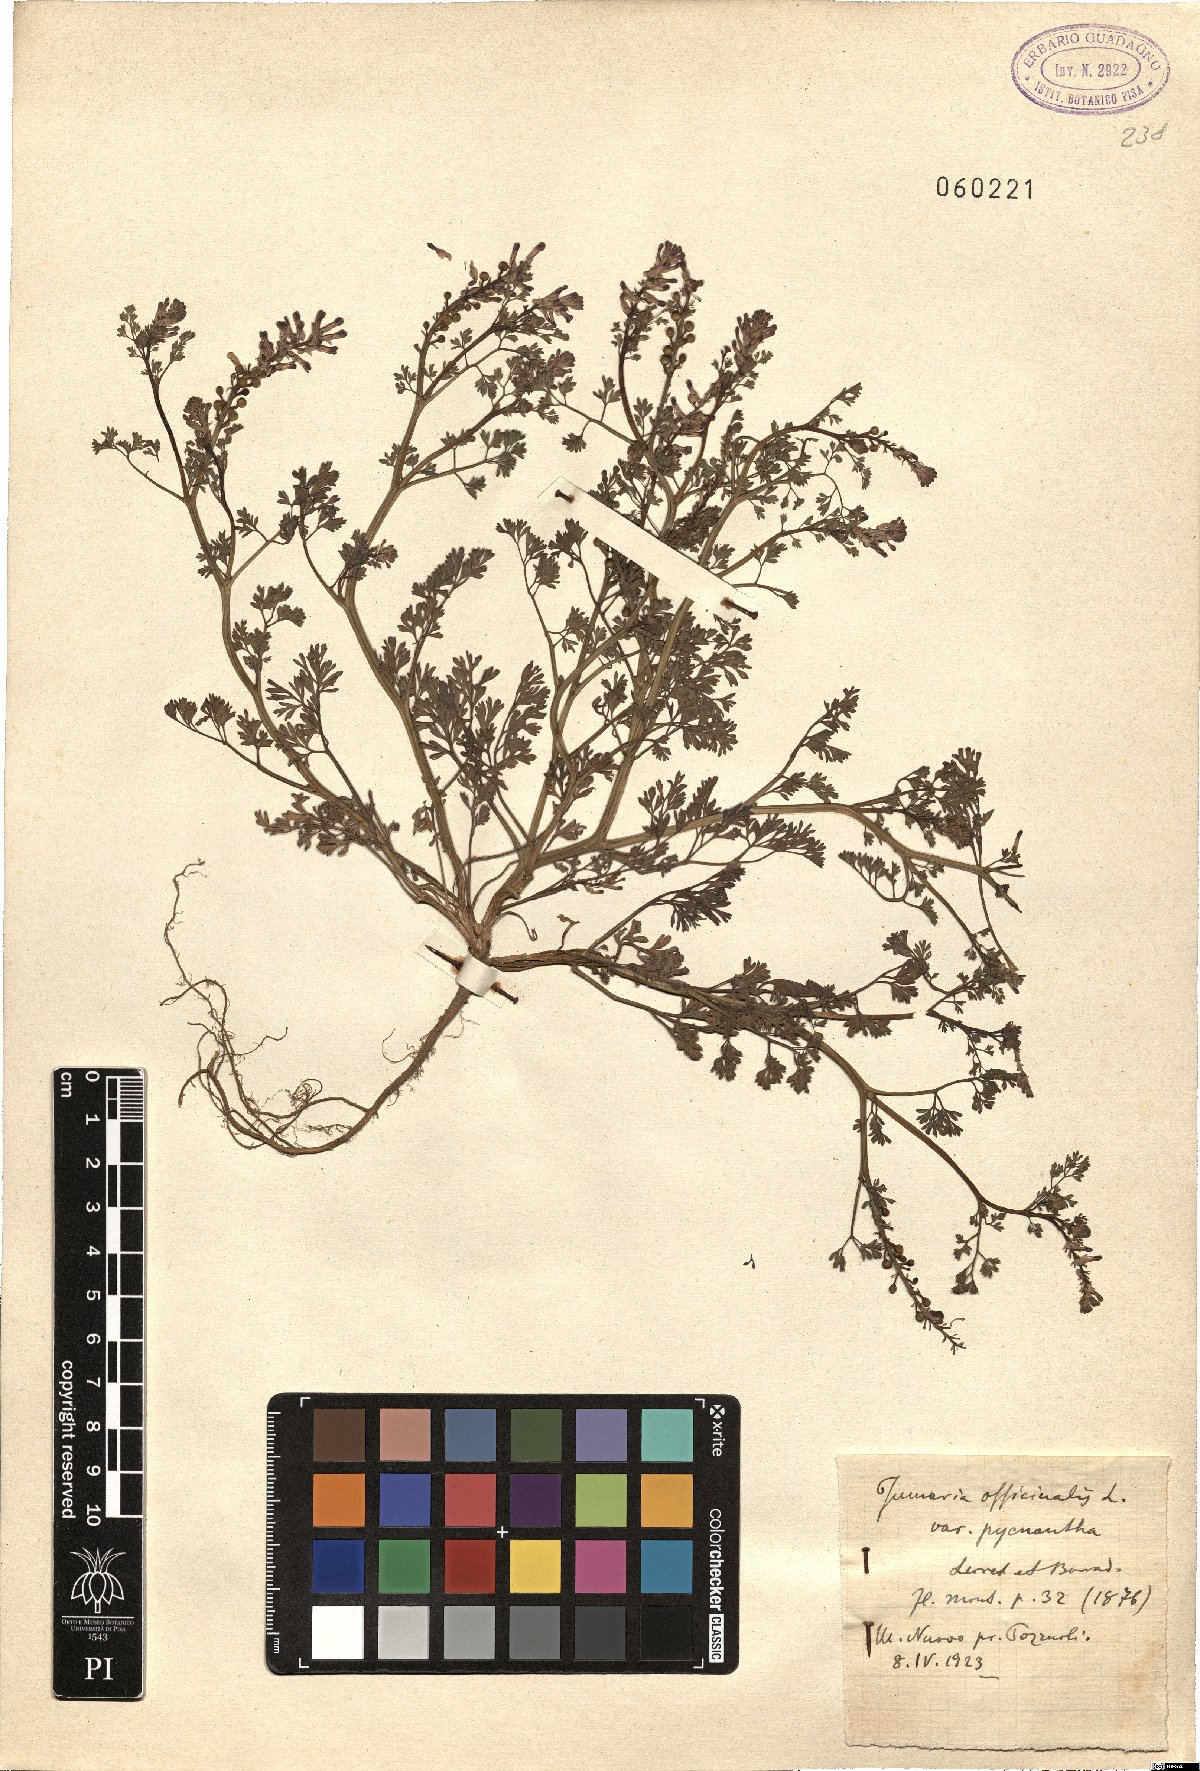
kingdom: Plantae
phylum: Tracheophyta
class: Magnoliopsida
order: Ranunculales
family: Papaveraceae
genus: Fumaria
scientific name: Fumaria officinalis
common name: Common fumitory
